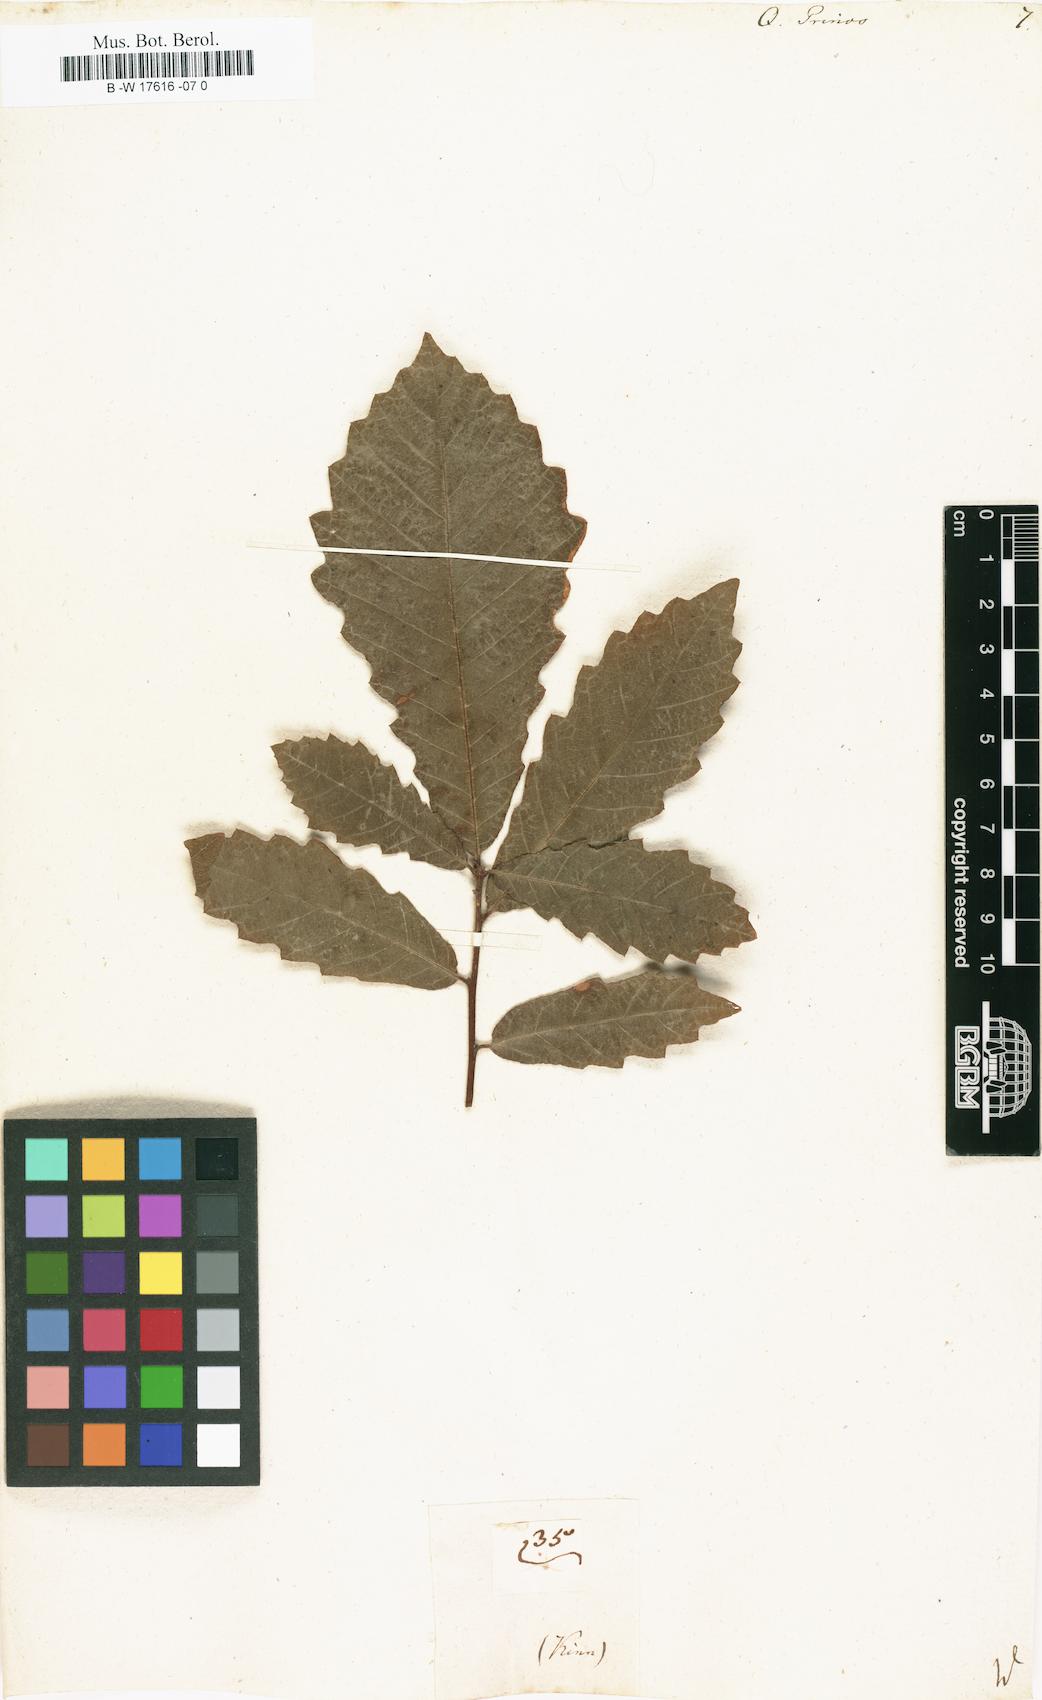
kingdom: Plantae
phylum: Tracheophyta
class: Magnoliopsida
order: Fagales
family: Fagaceae
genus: Quercus
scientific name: Quercus michauxii
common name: Swamp chestnut oak
